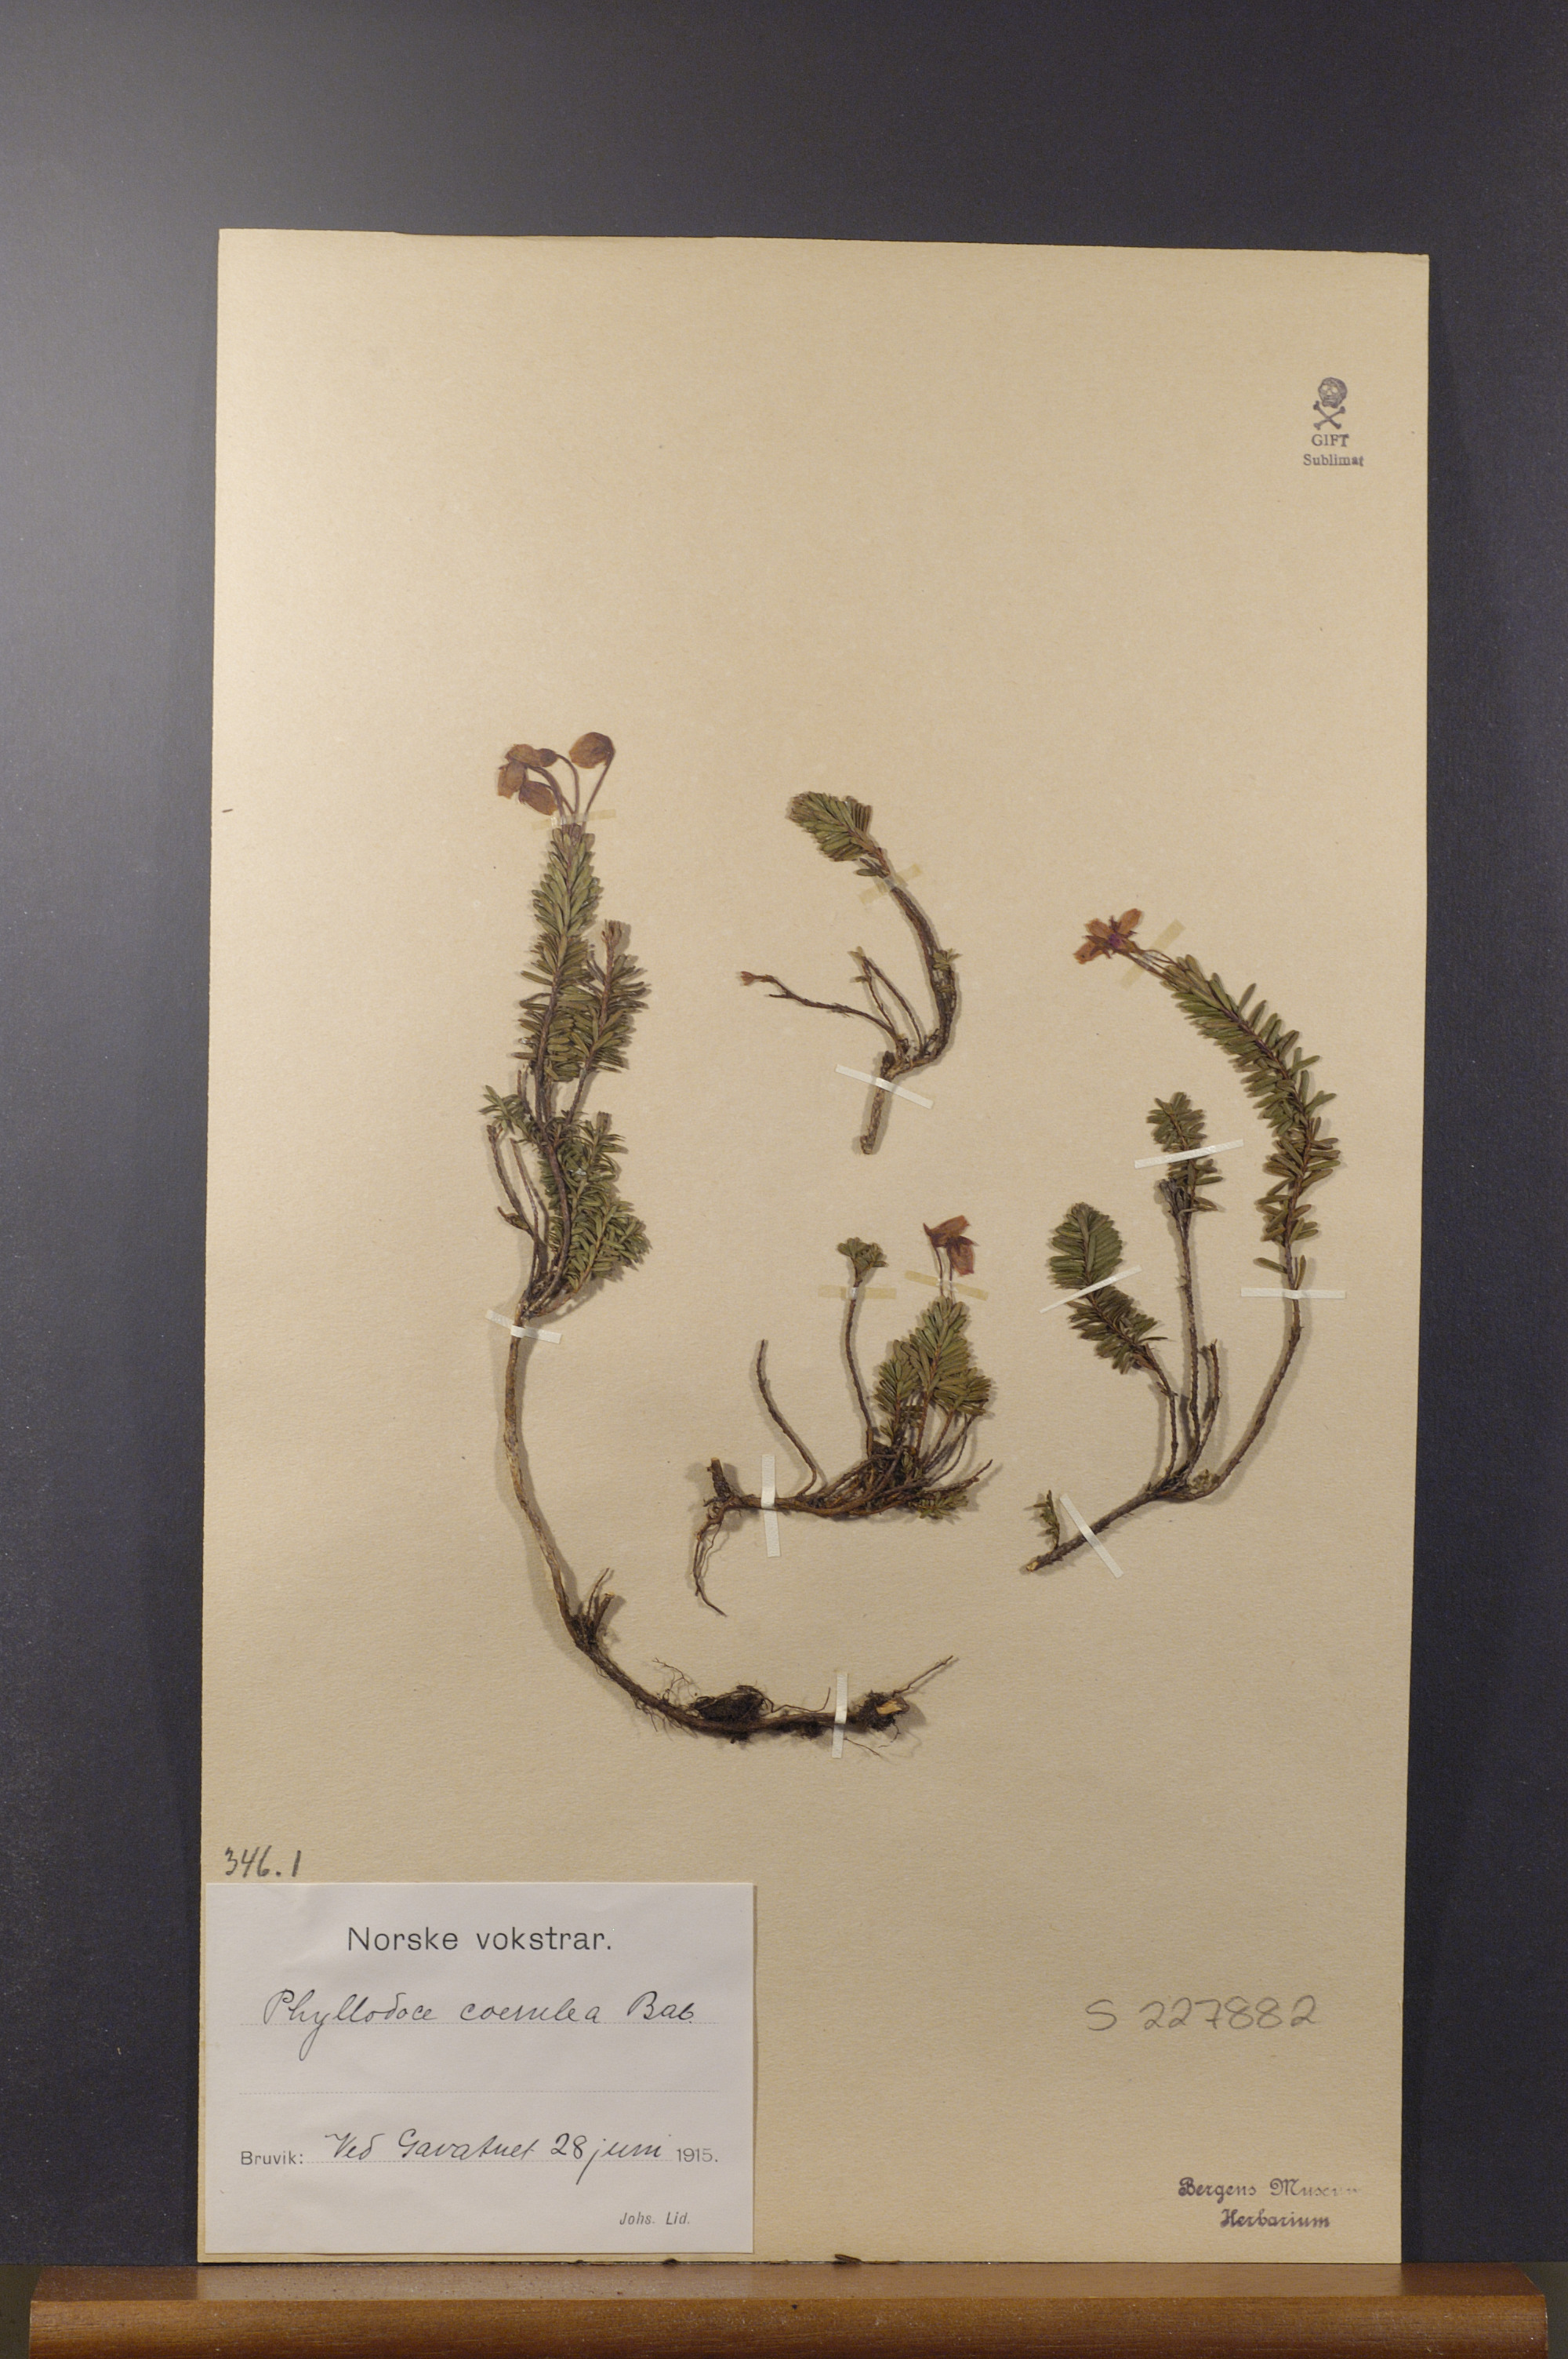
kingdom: Plantae
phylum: Tracheophyta
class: Magnoliopsida
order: Ericales
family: Ericaceae
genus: Phyllodoce
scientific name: Phyllodoce caerulea
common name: Blue heath
